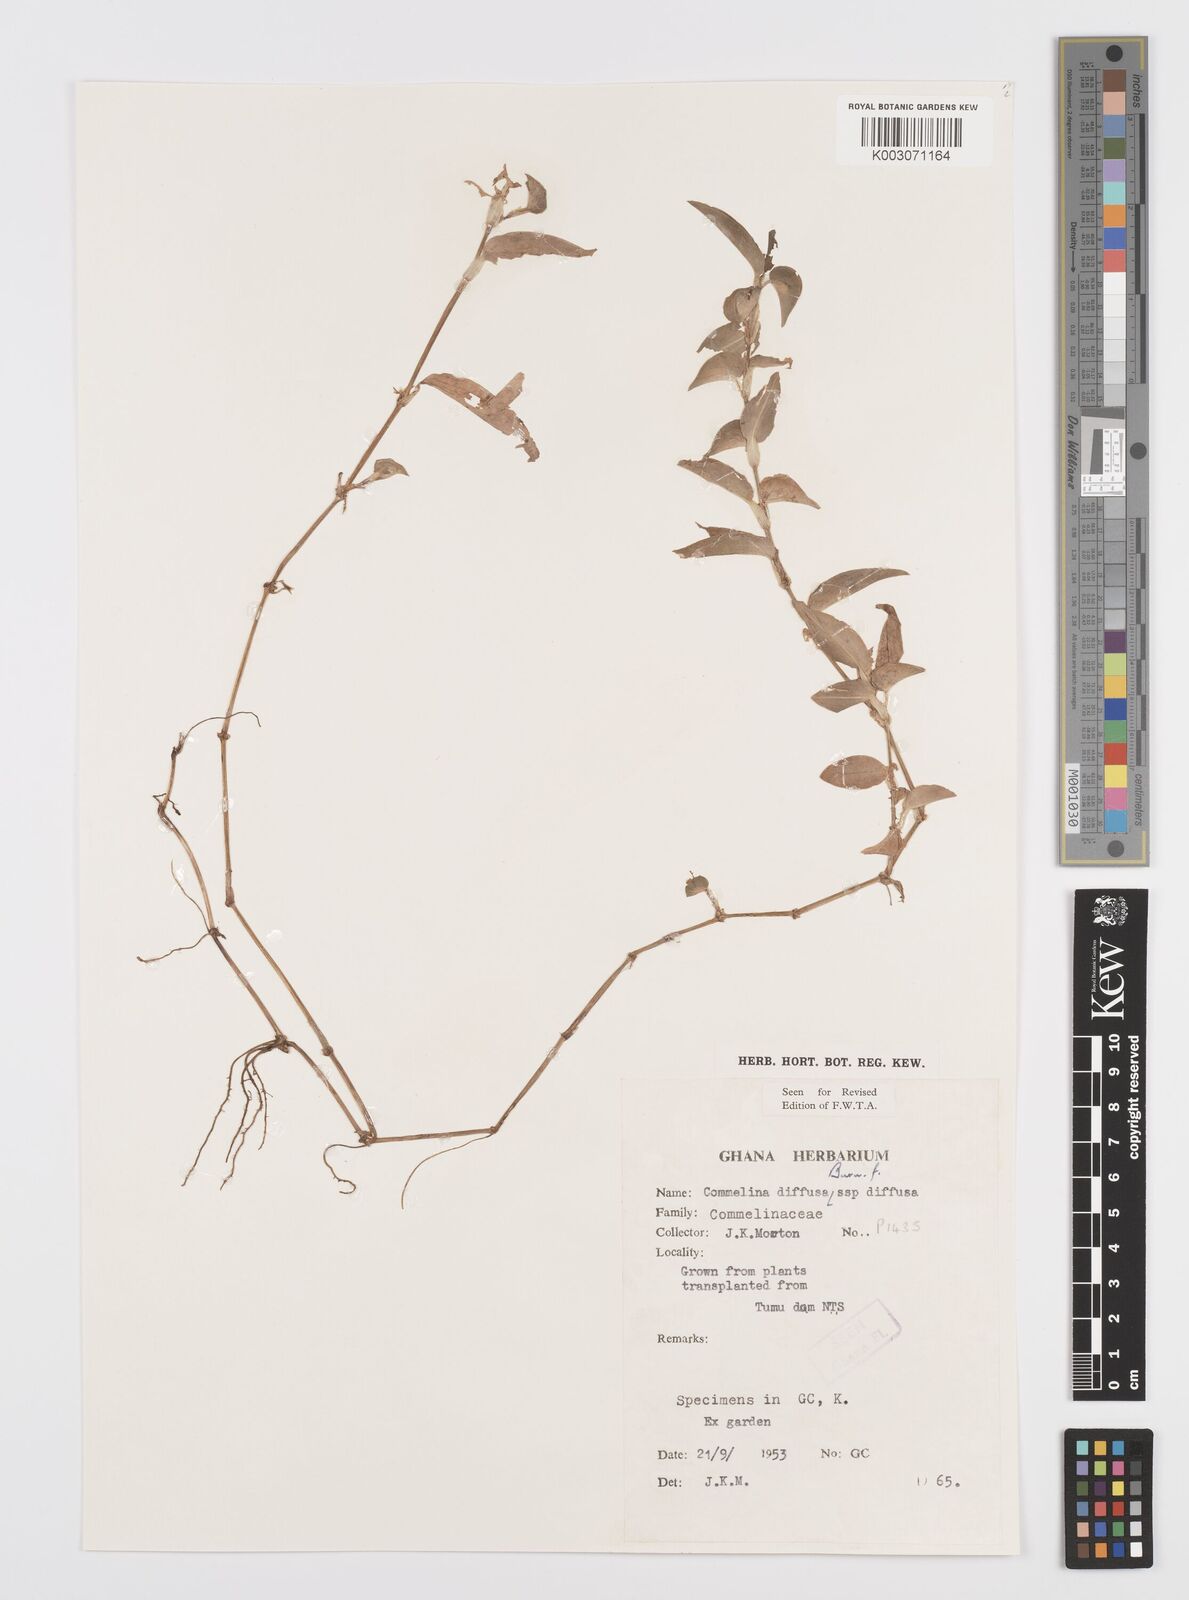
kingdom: Plantae
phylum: Tracheophyta
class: Liliopsida
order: Commelinales
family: Commelinaceae
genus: Commelina
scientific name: Commelina diffusa
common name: Climbing dayflower
